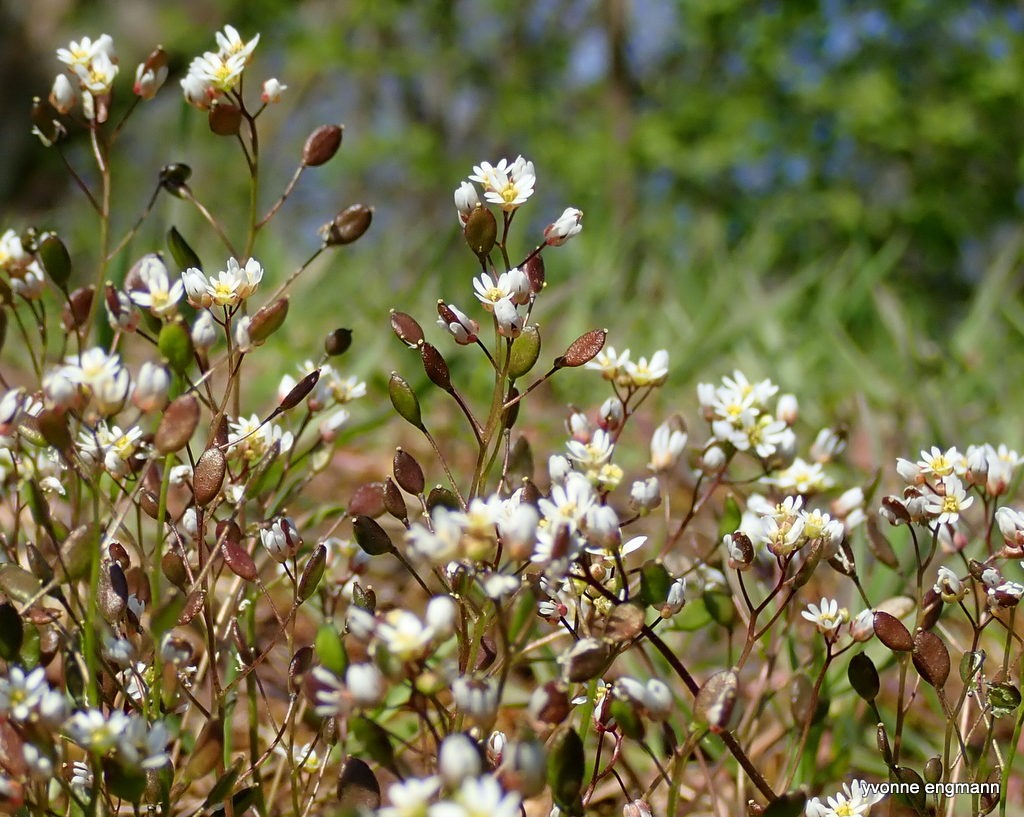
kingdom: Plantae
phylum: Tracheophyta
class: Magnoliopsida
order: Brassicales
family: Brassicaceae
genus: Draba
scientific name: Draba verna
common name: Vår-gæslingeblomst
